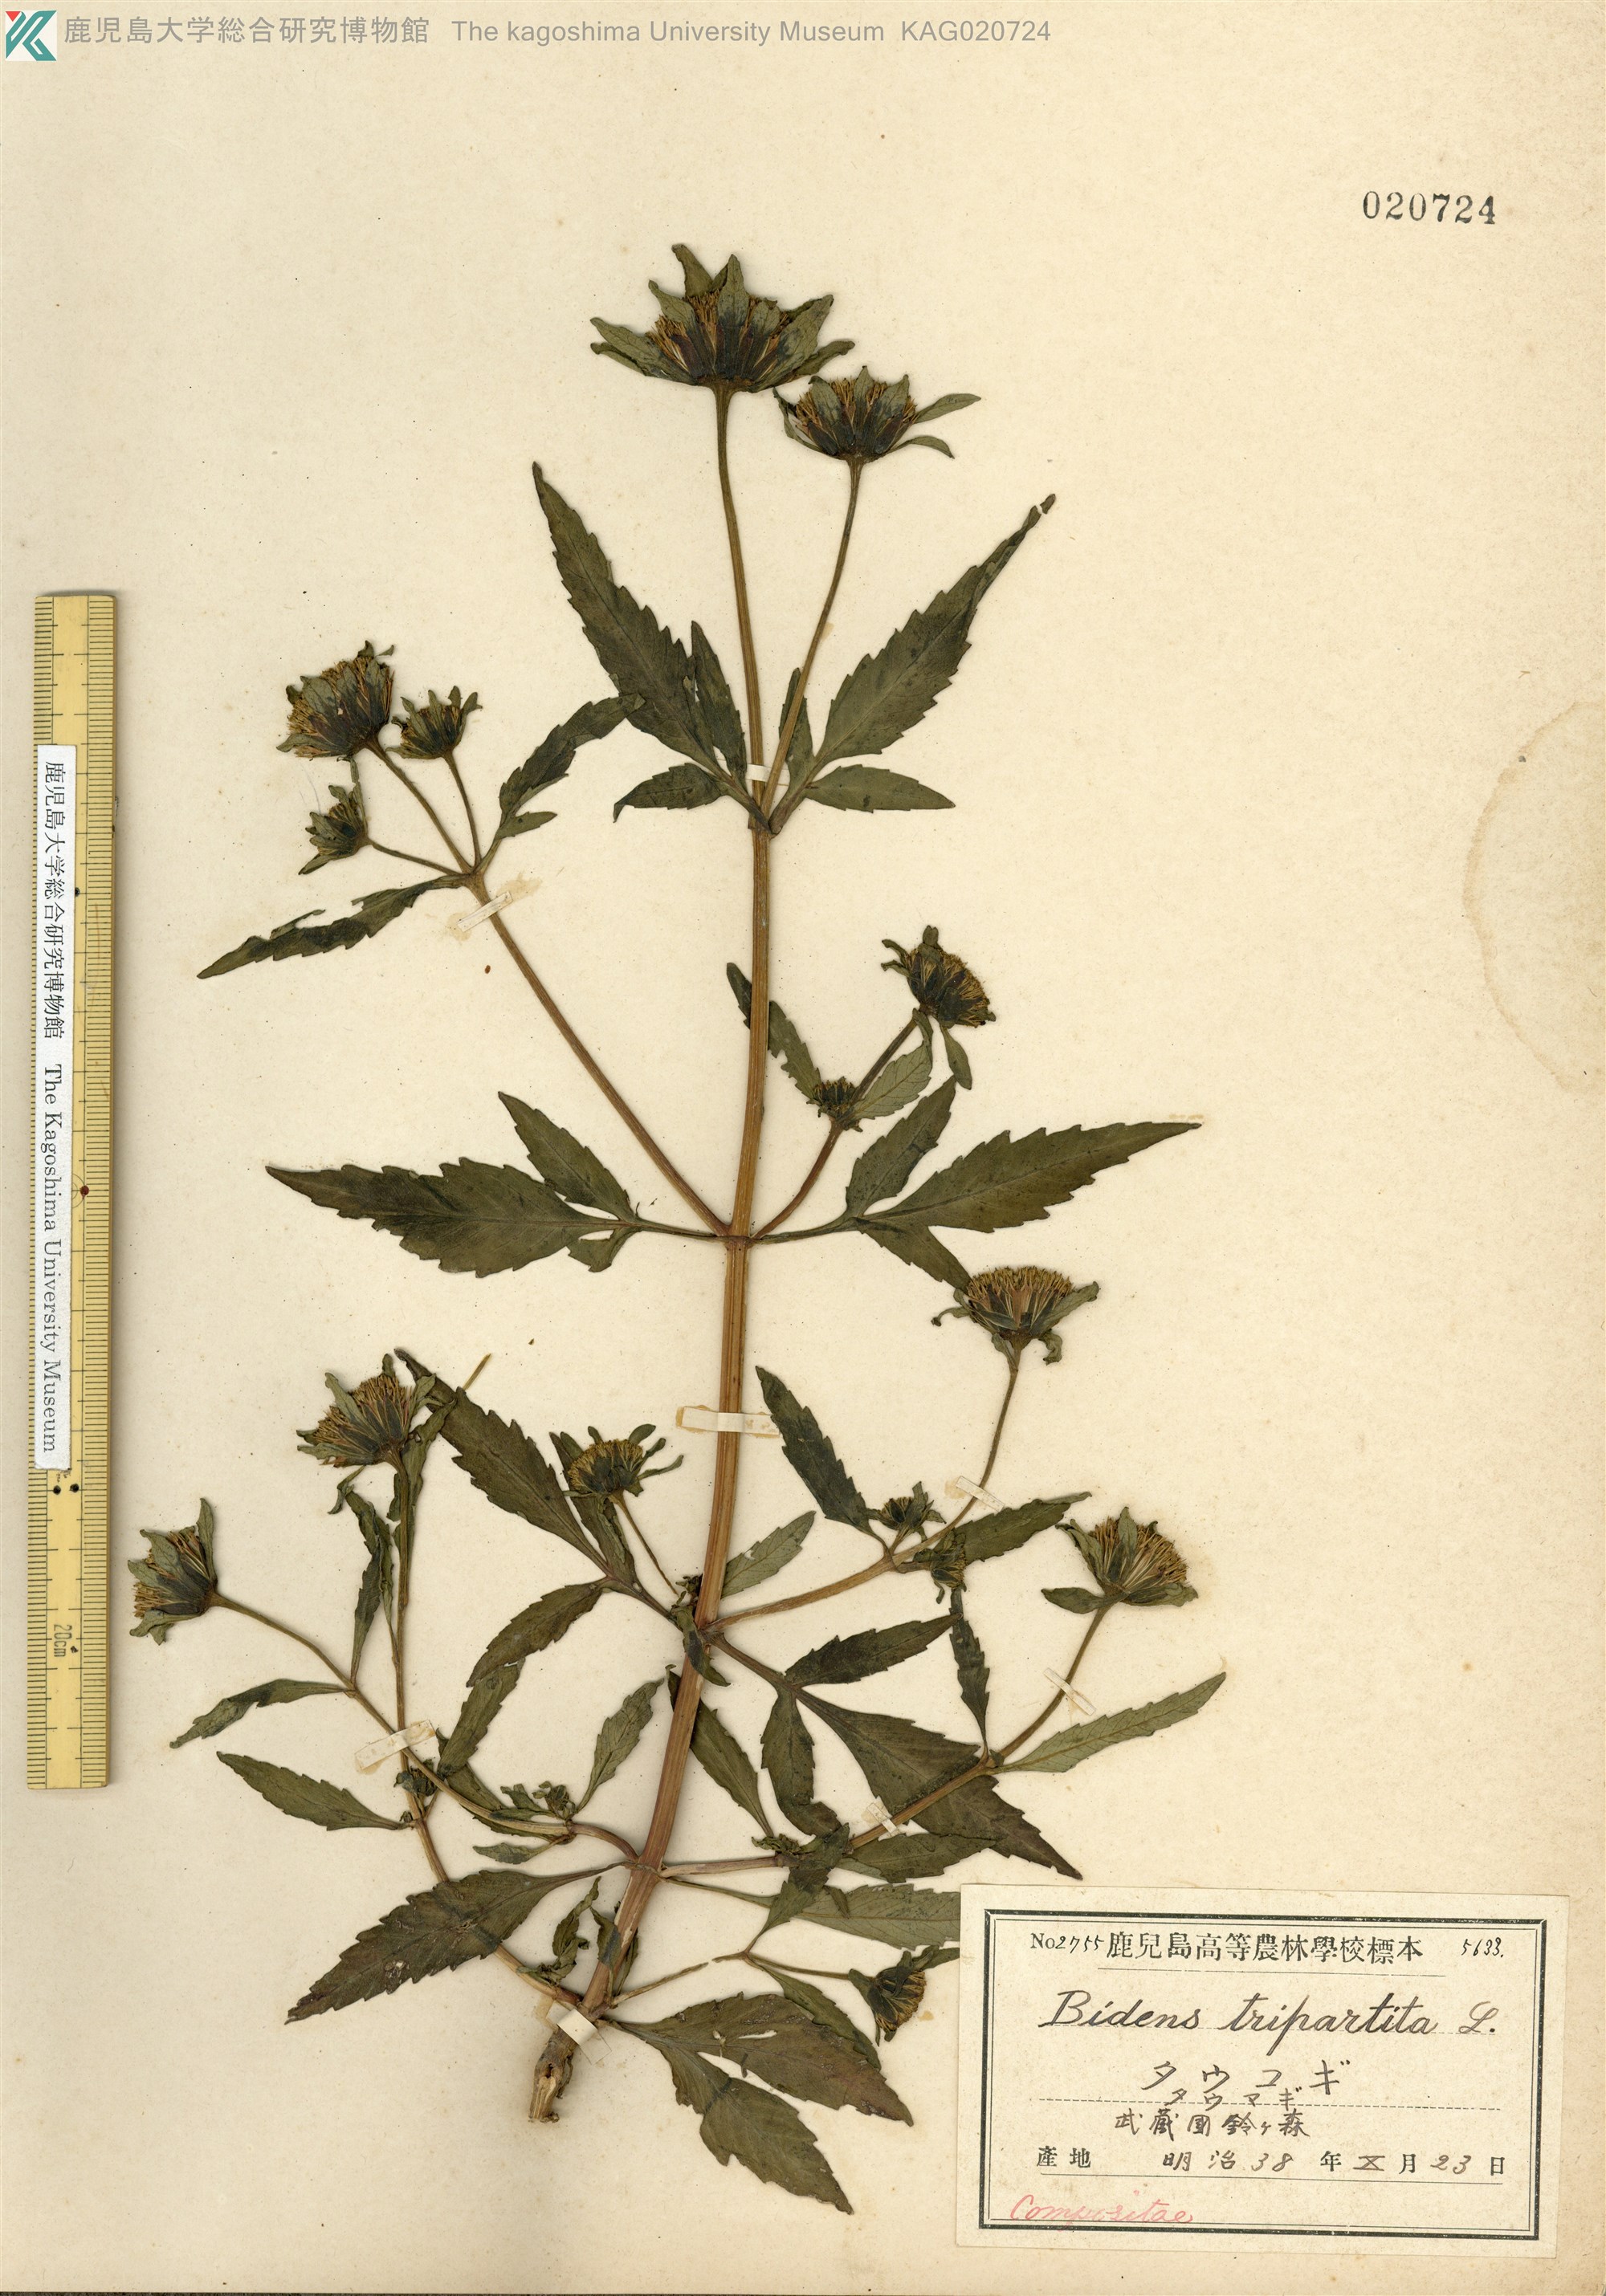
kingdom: Plantae
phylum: Tracheophyta
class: Magnoliopsida
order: Asterales
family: Asteraceae
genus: Bidens
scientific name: Bidens tripartita
